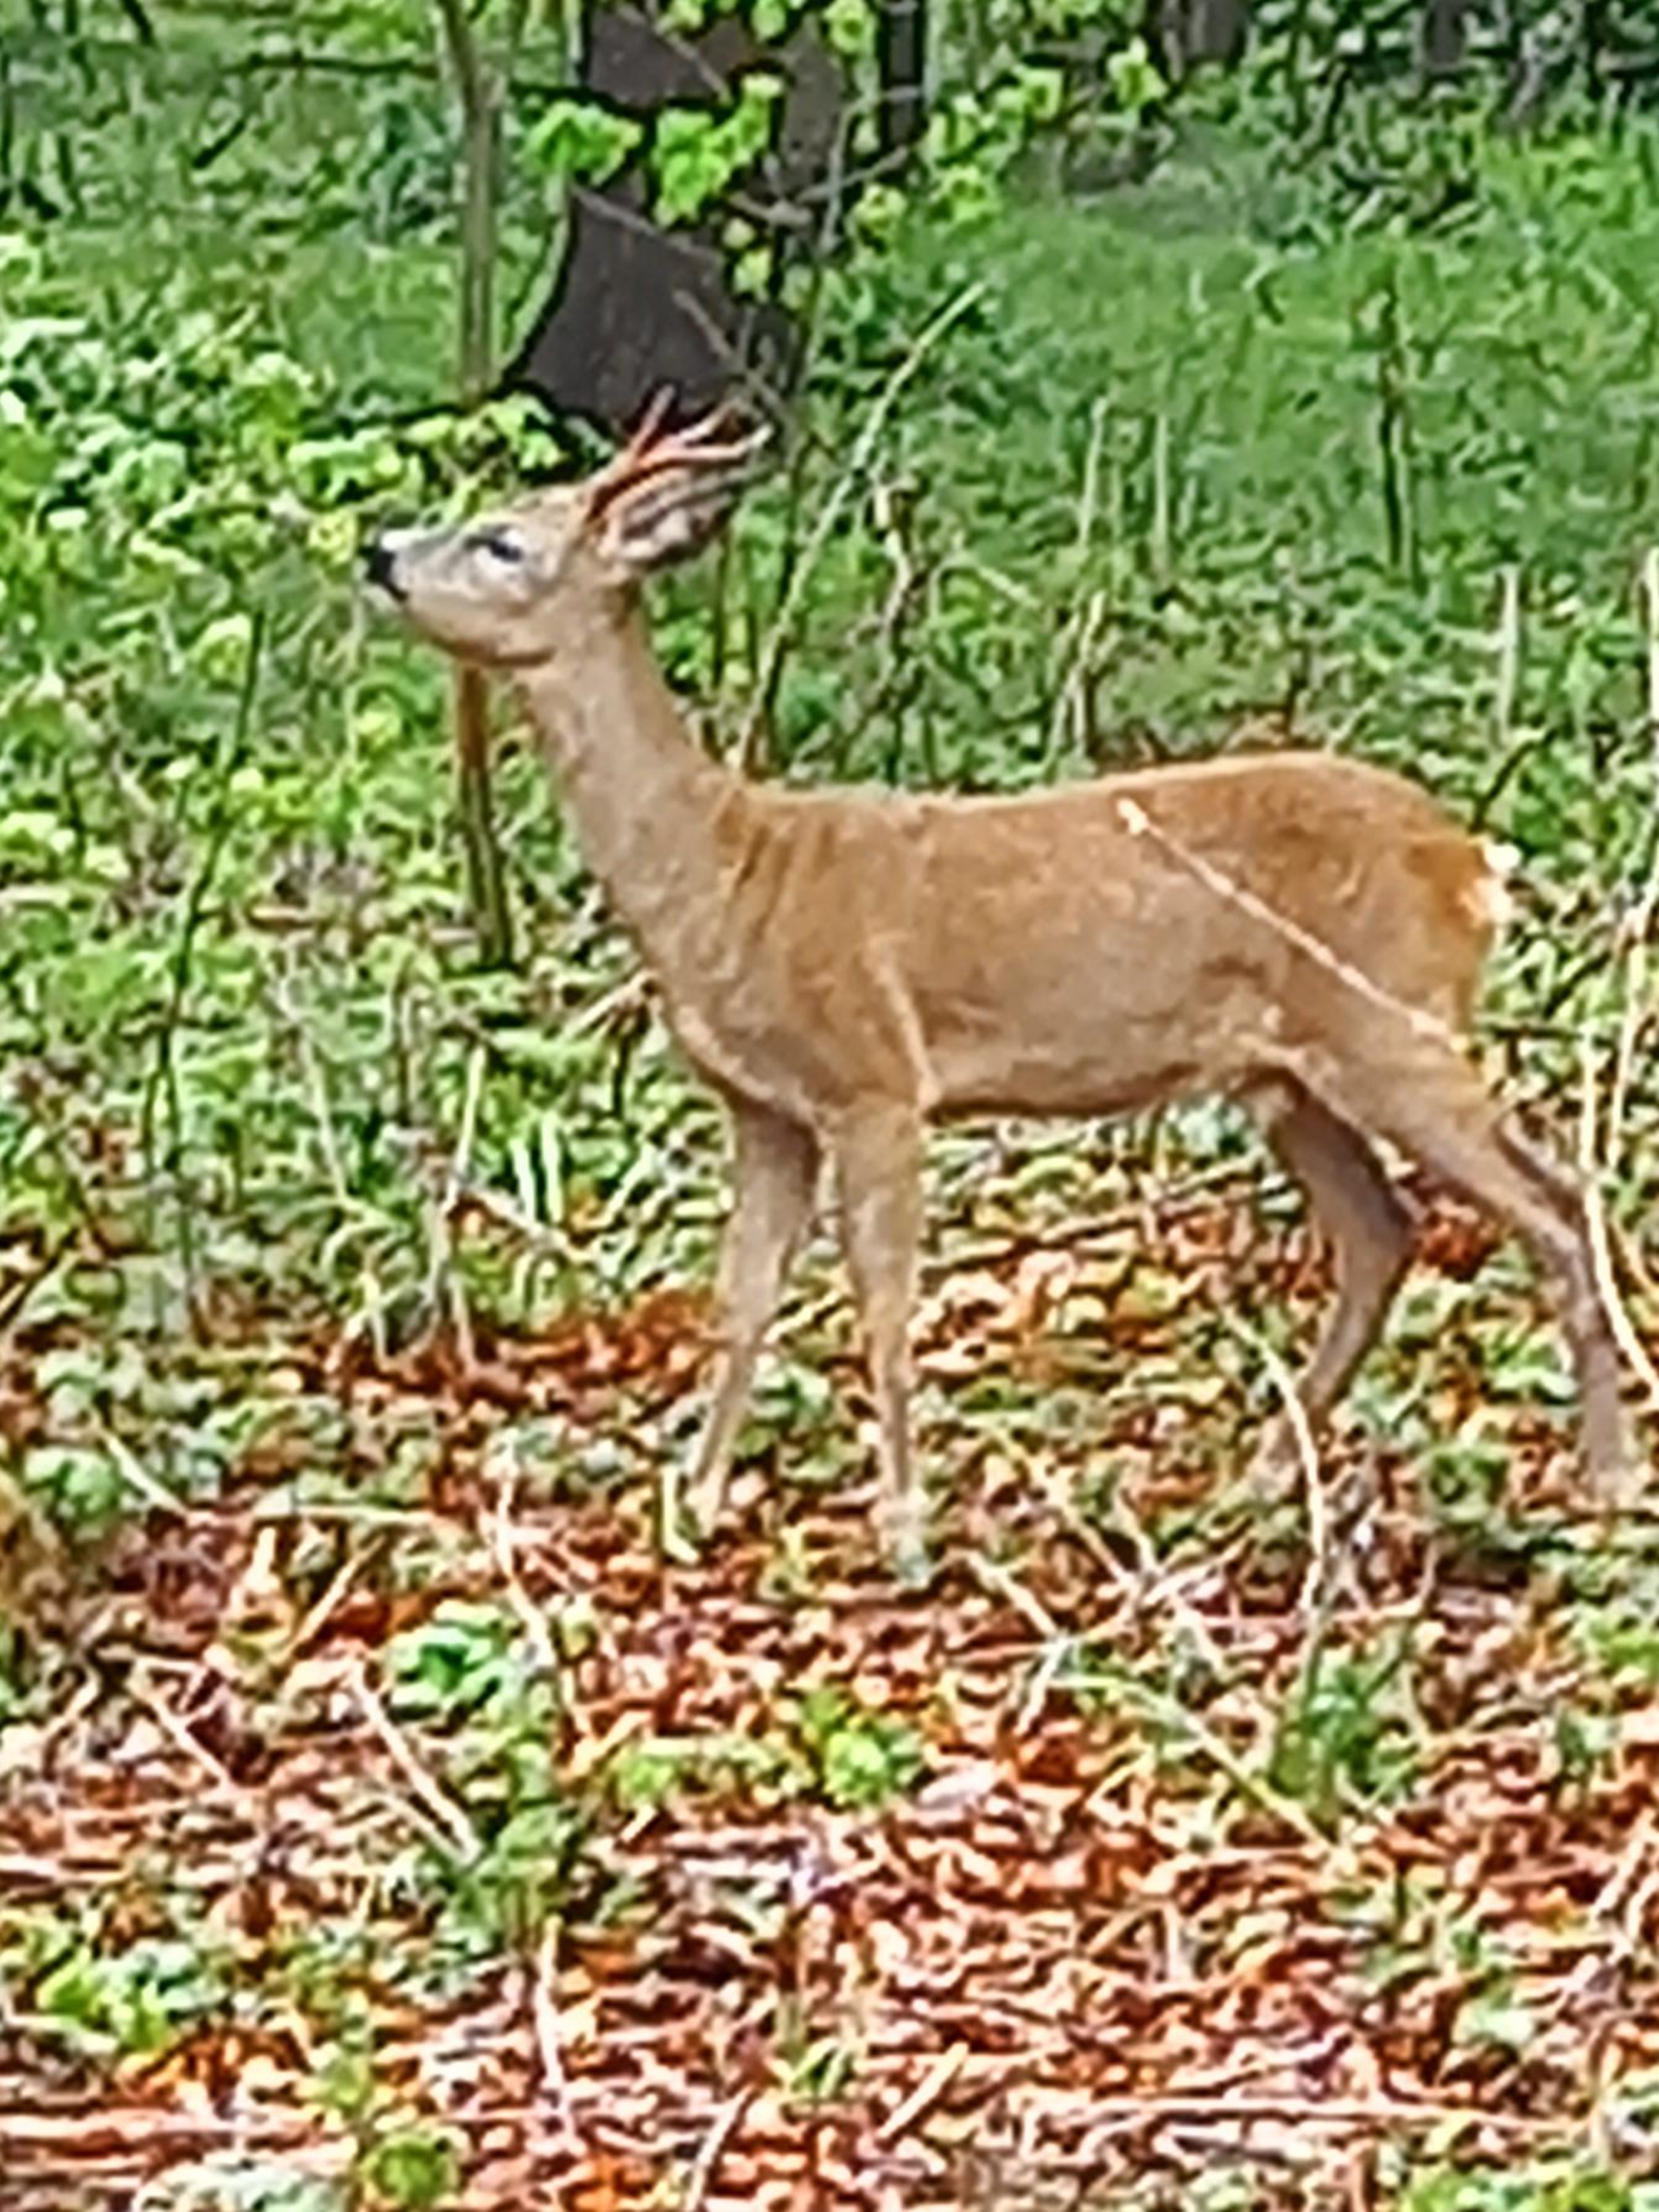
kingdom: Animalia
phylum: Chordata
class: Mammalia
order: Artiodactyla
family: Cervidae
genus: Capreolus
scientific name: Capreolus capreolus
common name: Rådyr
